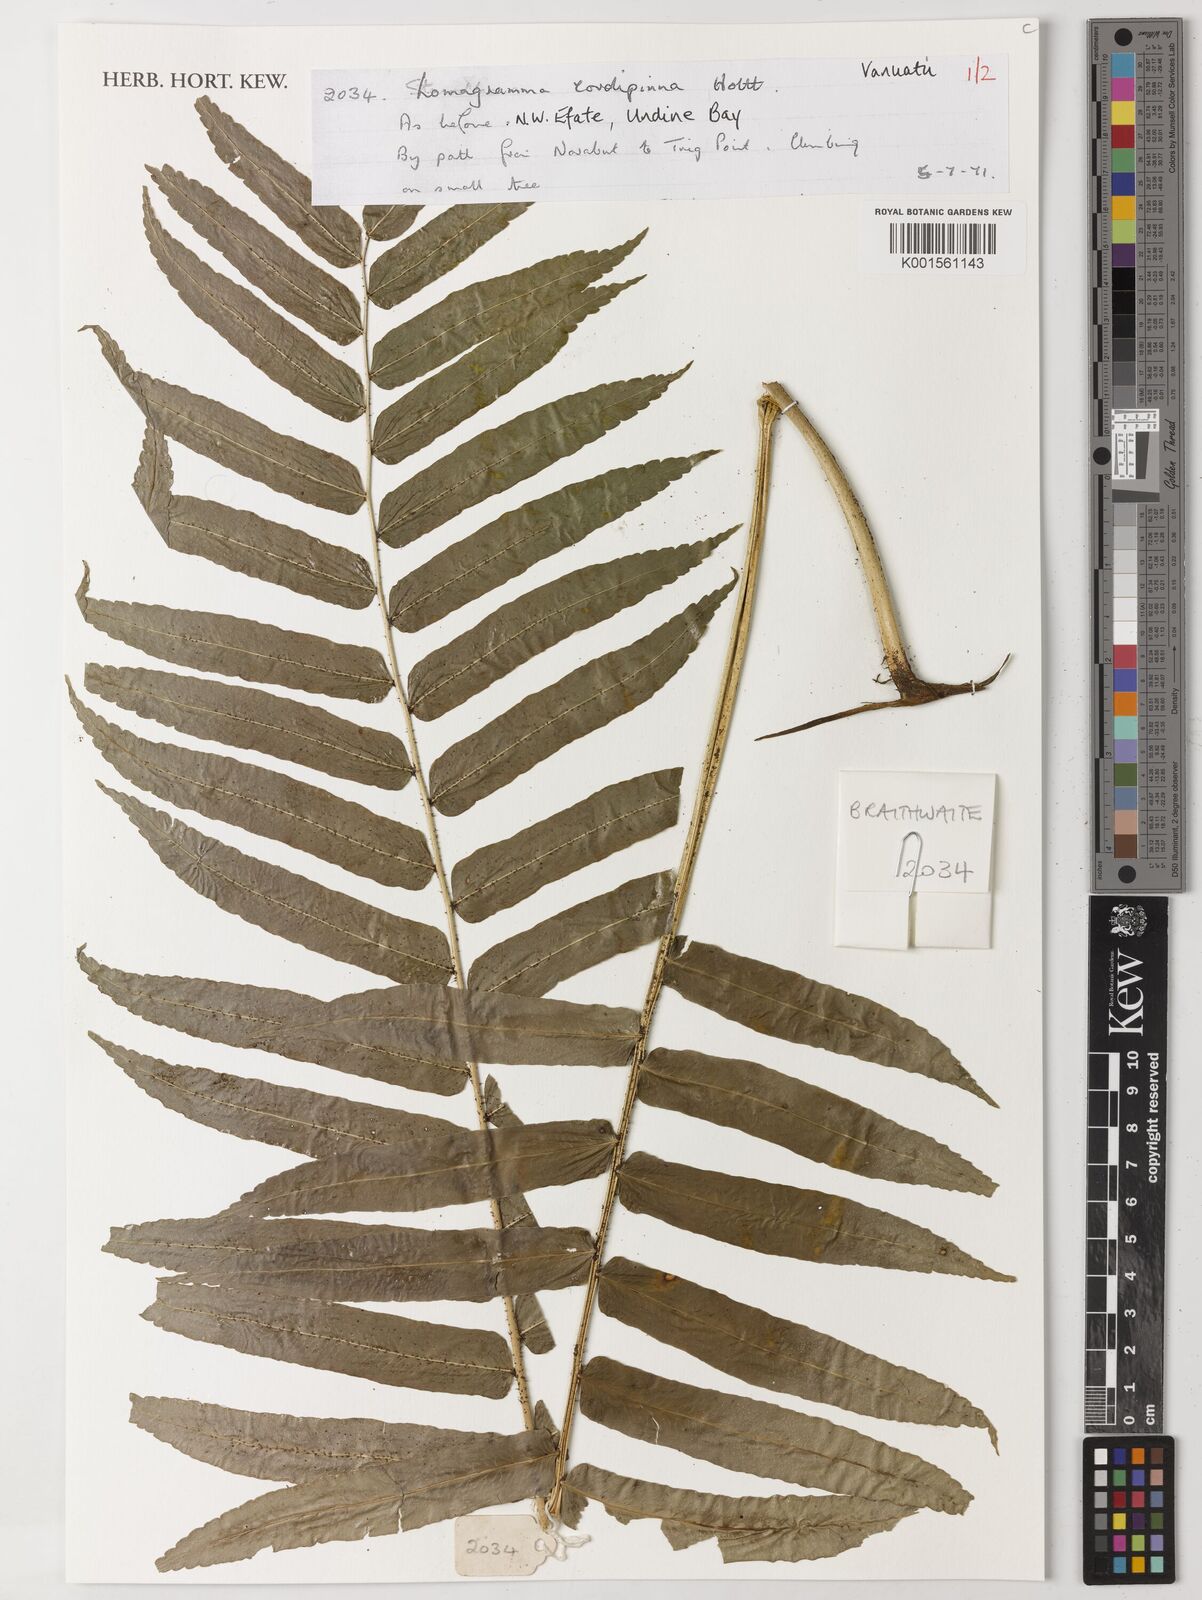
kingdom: Plantae
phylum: Tracheophyta
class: Polypodiopsida
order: Polypodiales
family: Dryopteridaceae
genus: Lomagramma
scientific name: Lomagramma cordipinna
